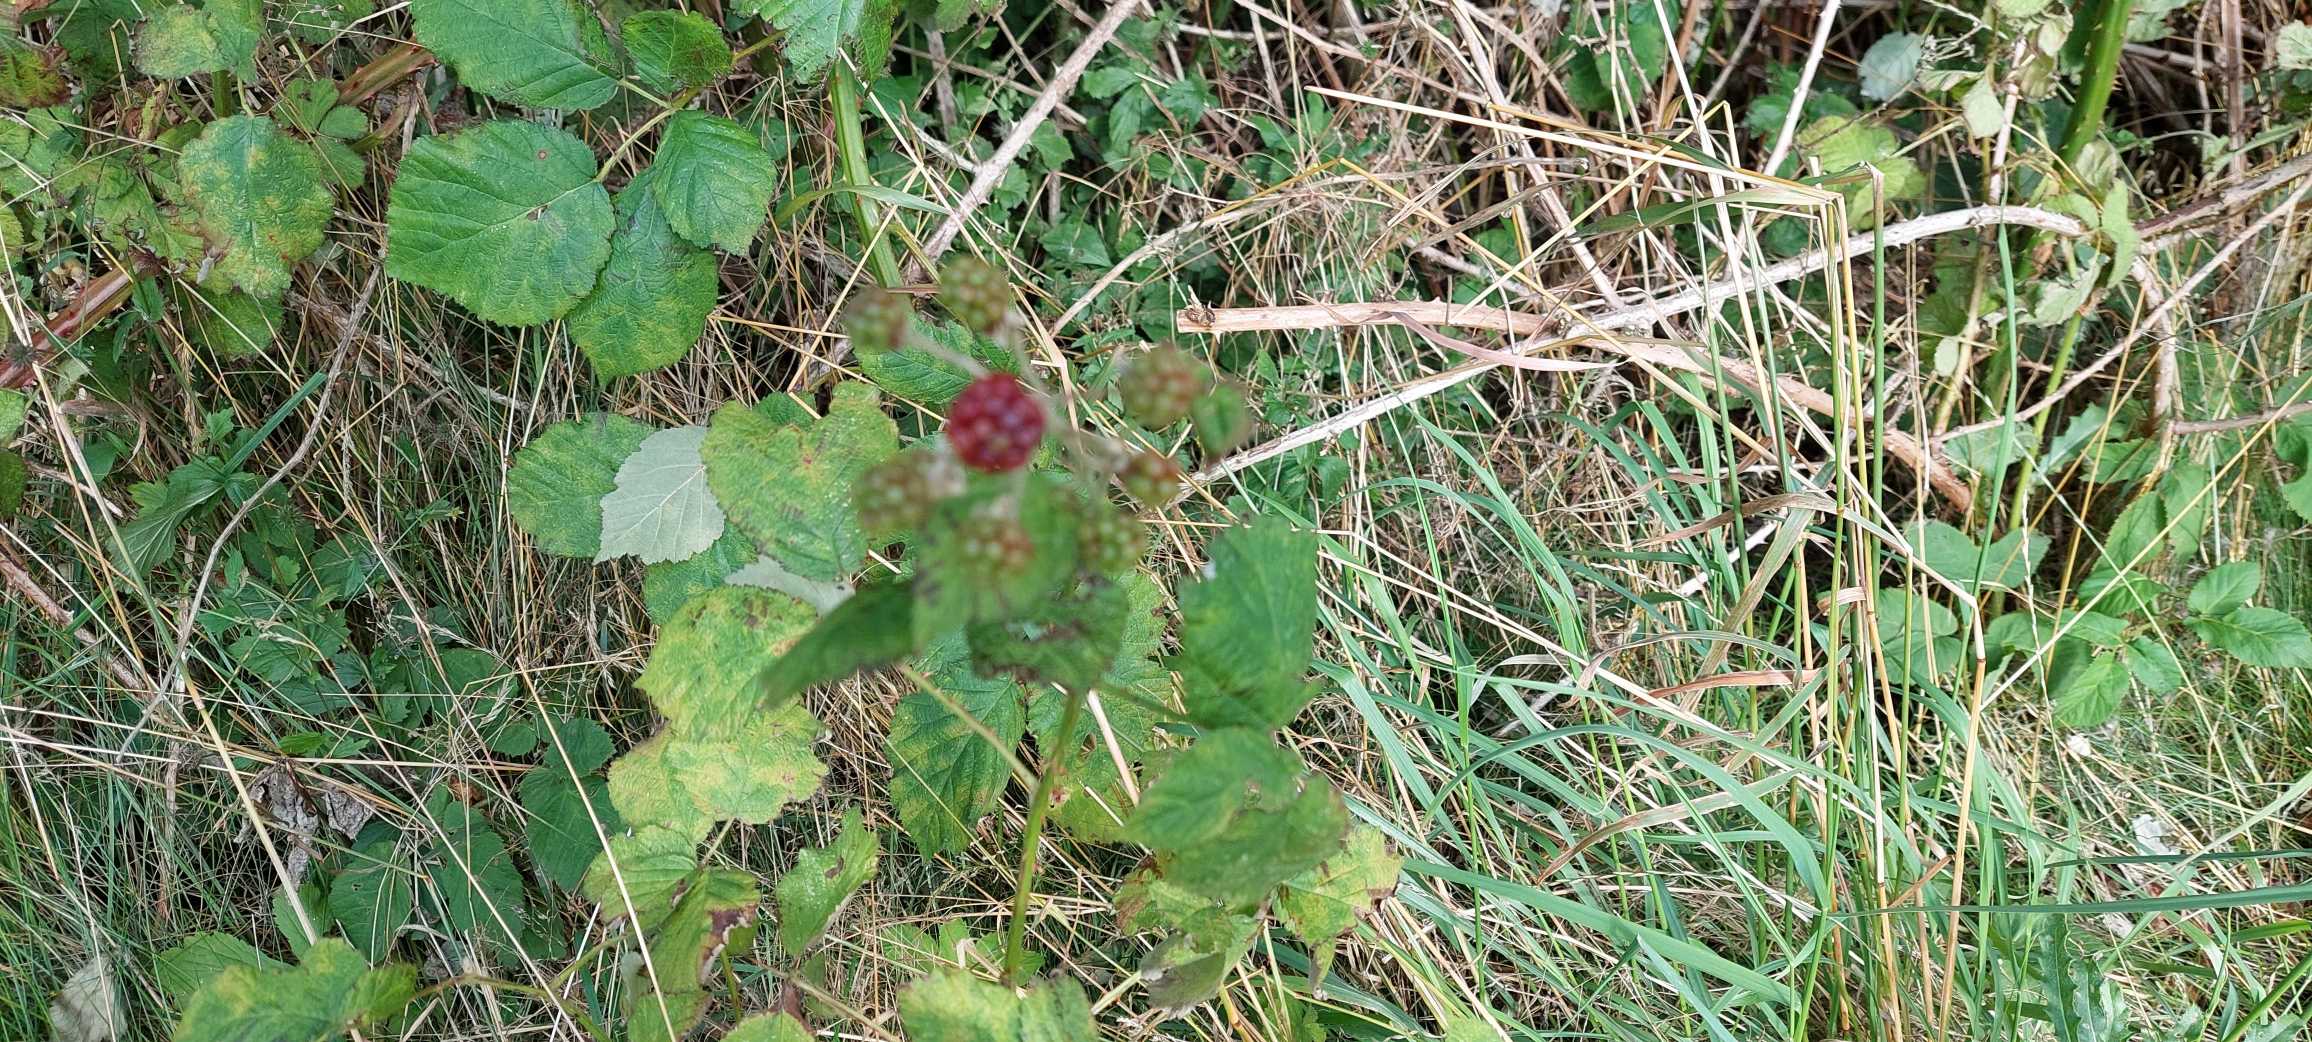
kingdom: Plantae
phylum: Tracheophyta
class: Magnoliopsida
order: Rosales
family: Rosaceae
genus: Rubus
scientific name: Rubus armeniacus
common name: Armensk brombær
